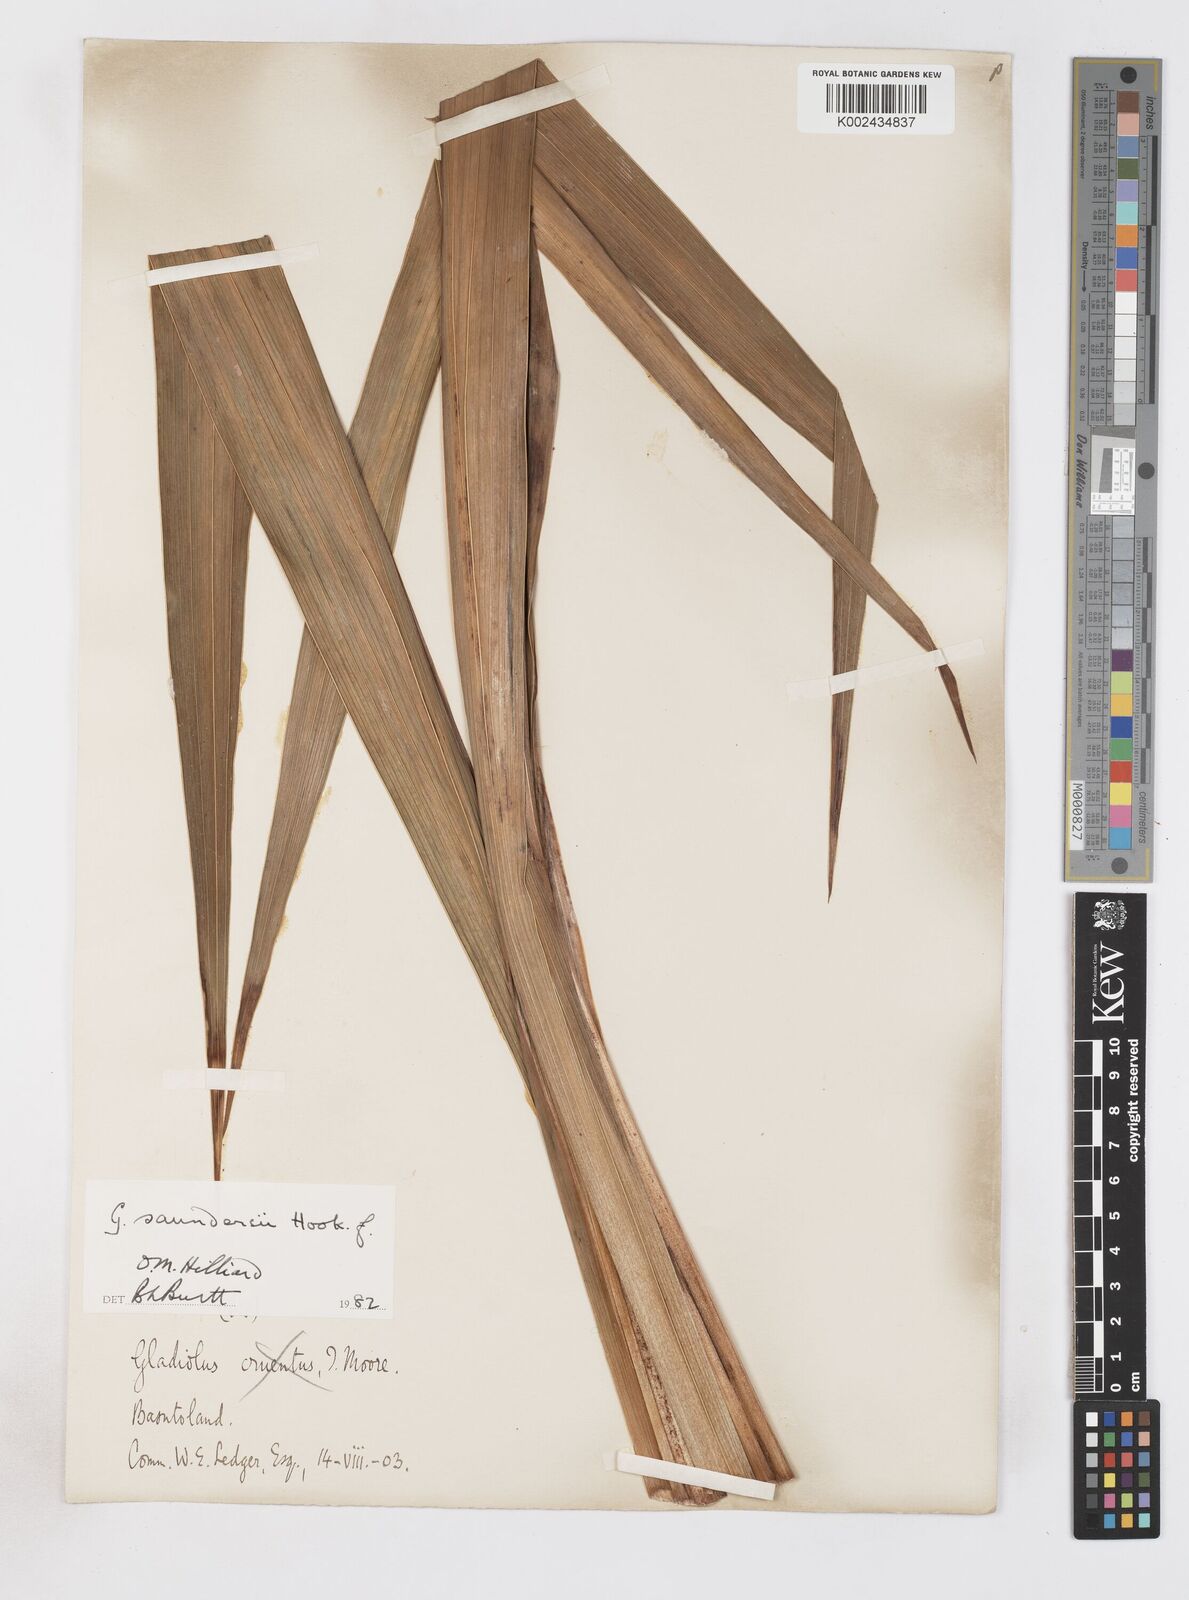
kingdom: Plantae
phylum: Tracheophyta
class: Liliopsida
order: Asparagales
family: Iridaceae
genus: Gladiolus
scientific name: Gladiolus saundersii
